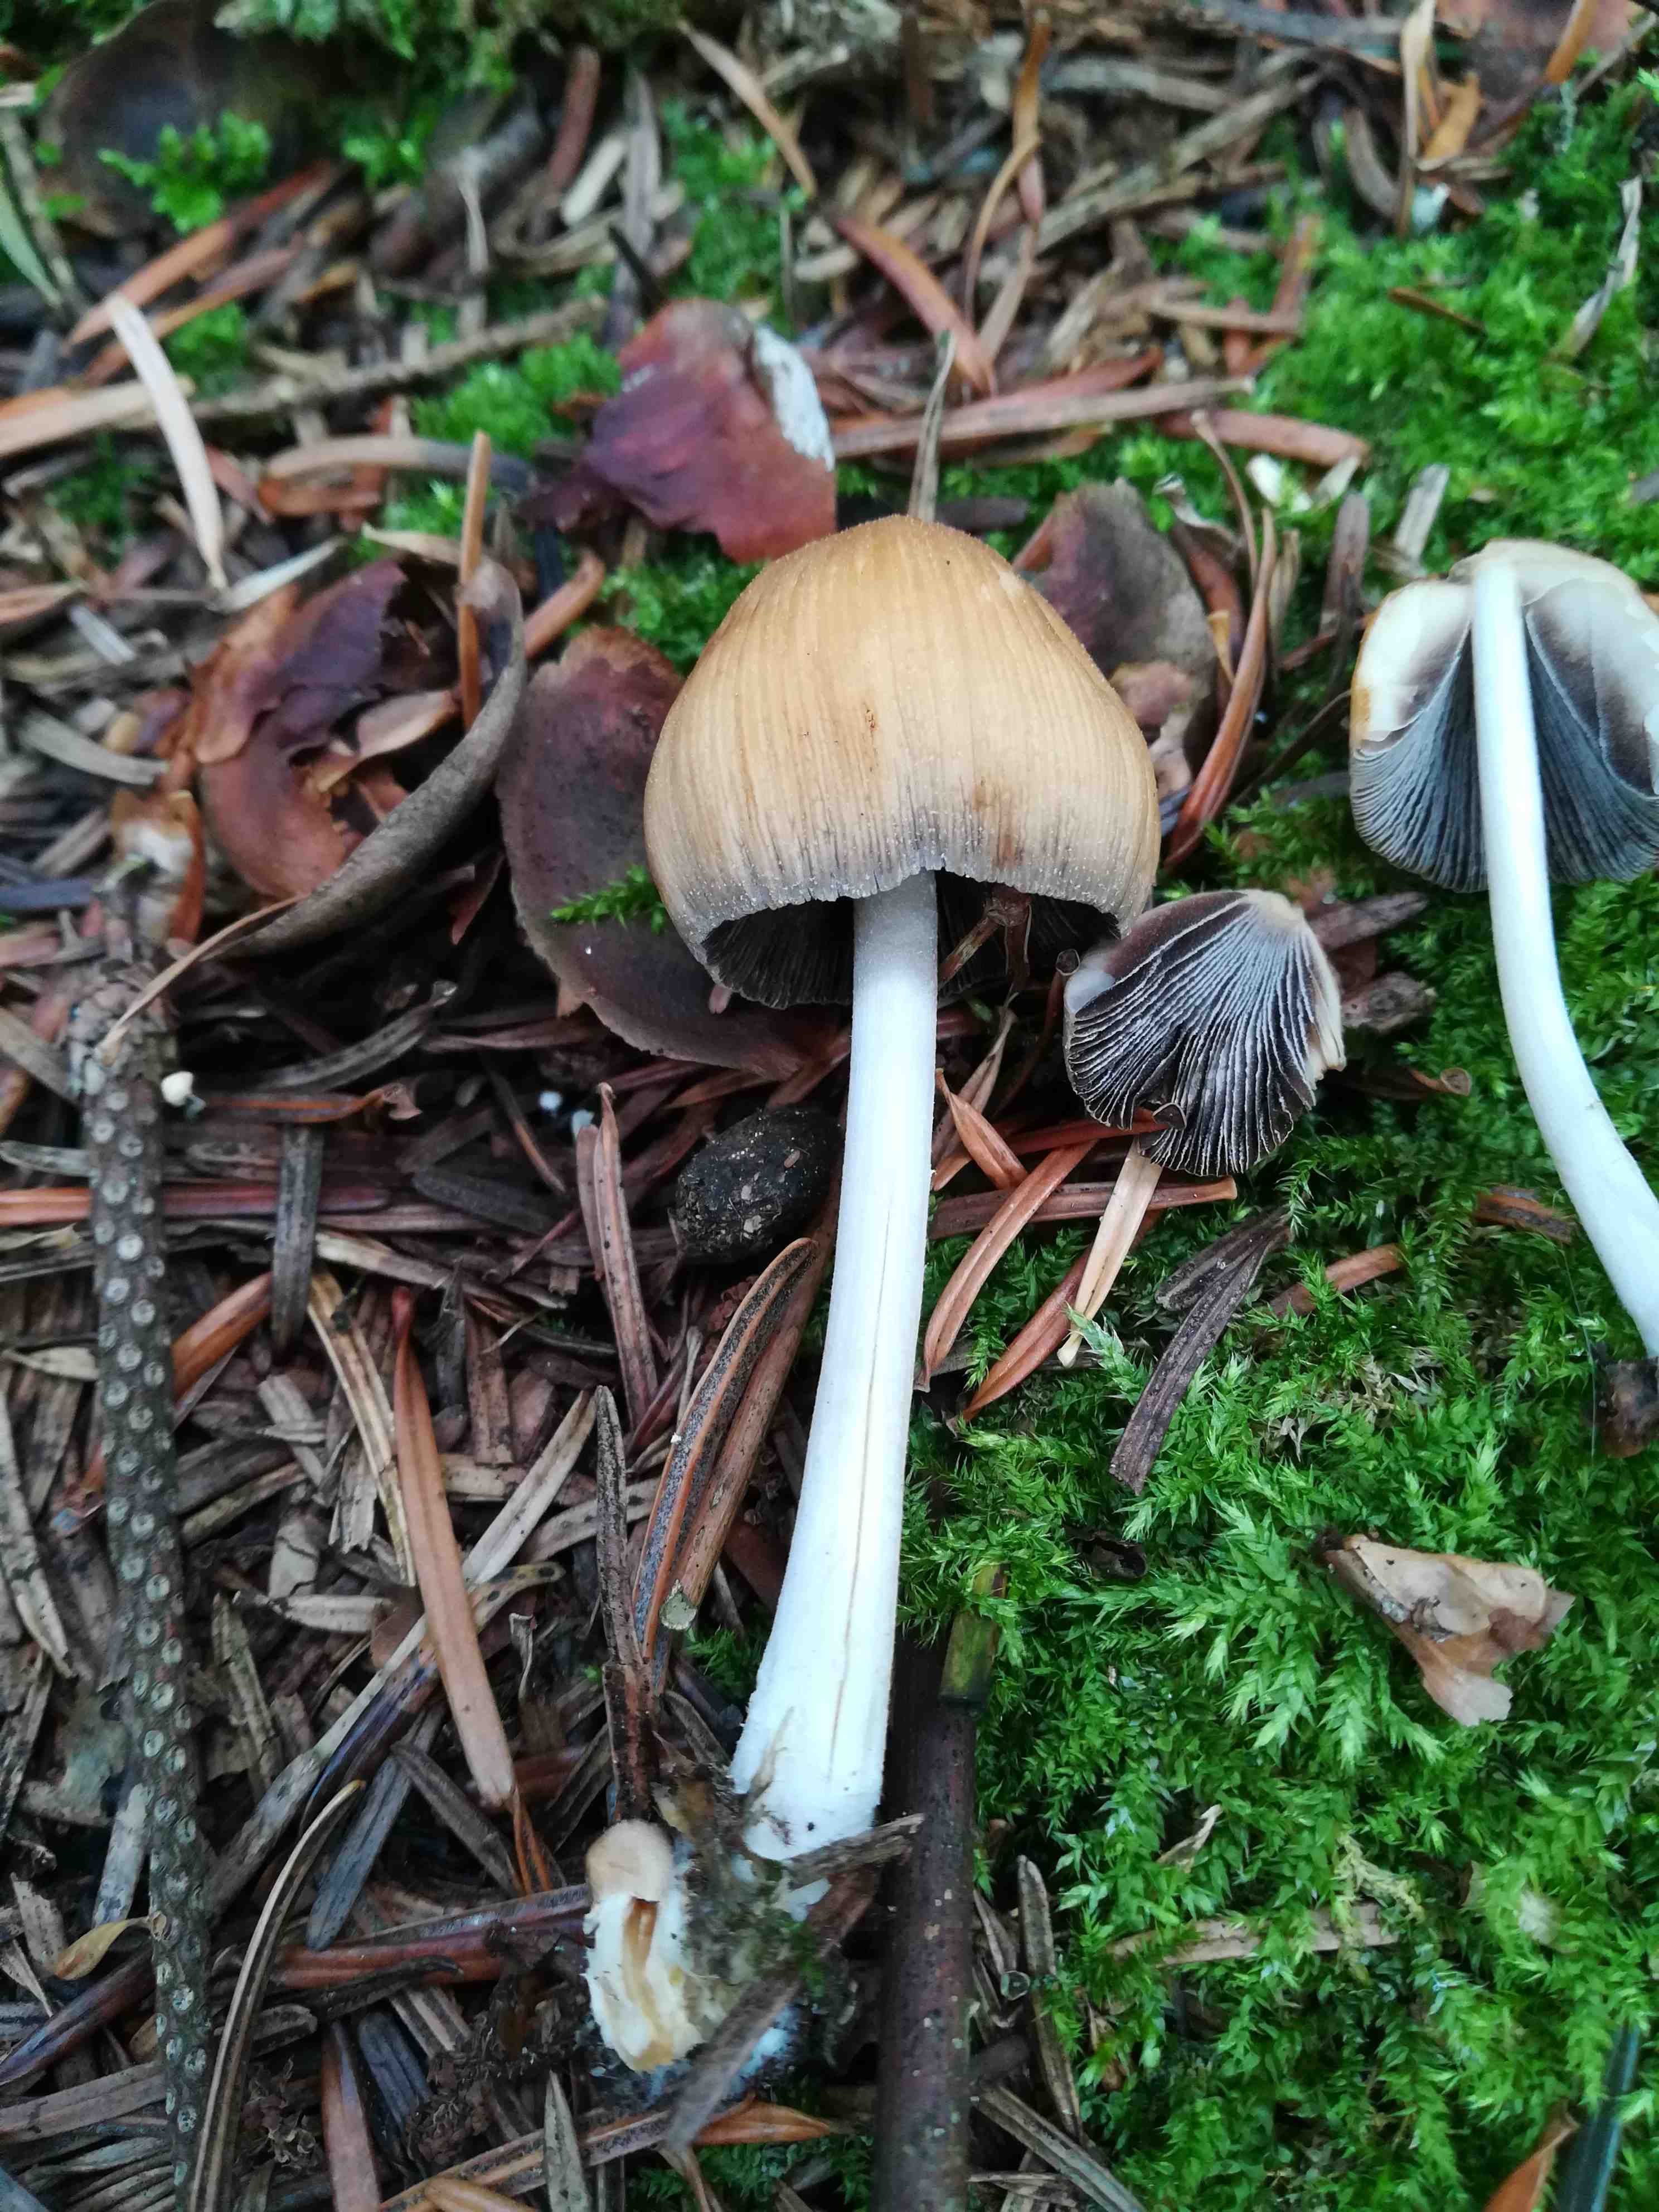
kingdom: Fungi
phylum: Basidiomycota
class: Agaricomycetes
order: Agaricales
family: Psathyrellaceae
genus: Coprinellus
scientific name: Coprinellus micaceus
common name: glimmer-blækhat
